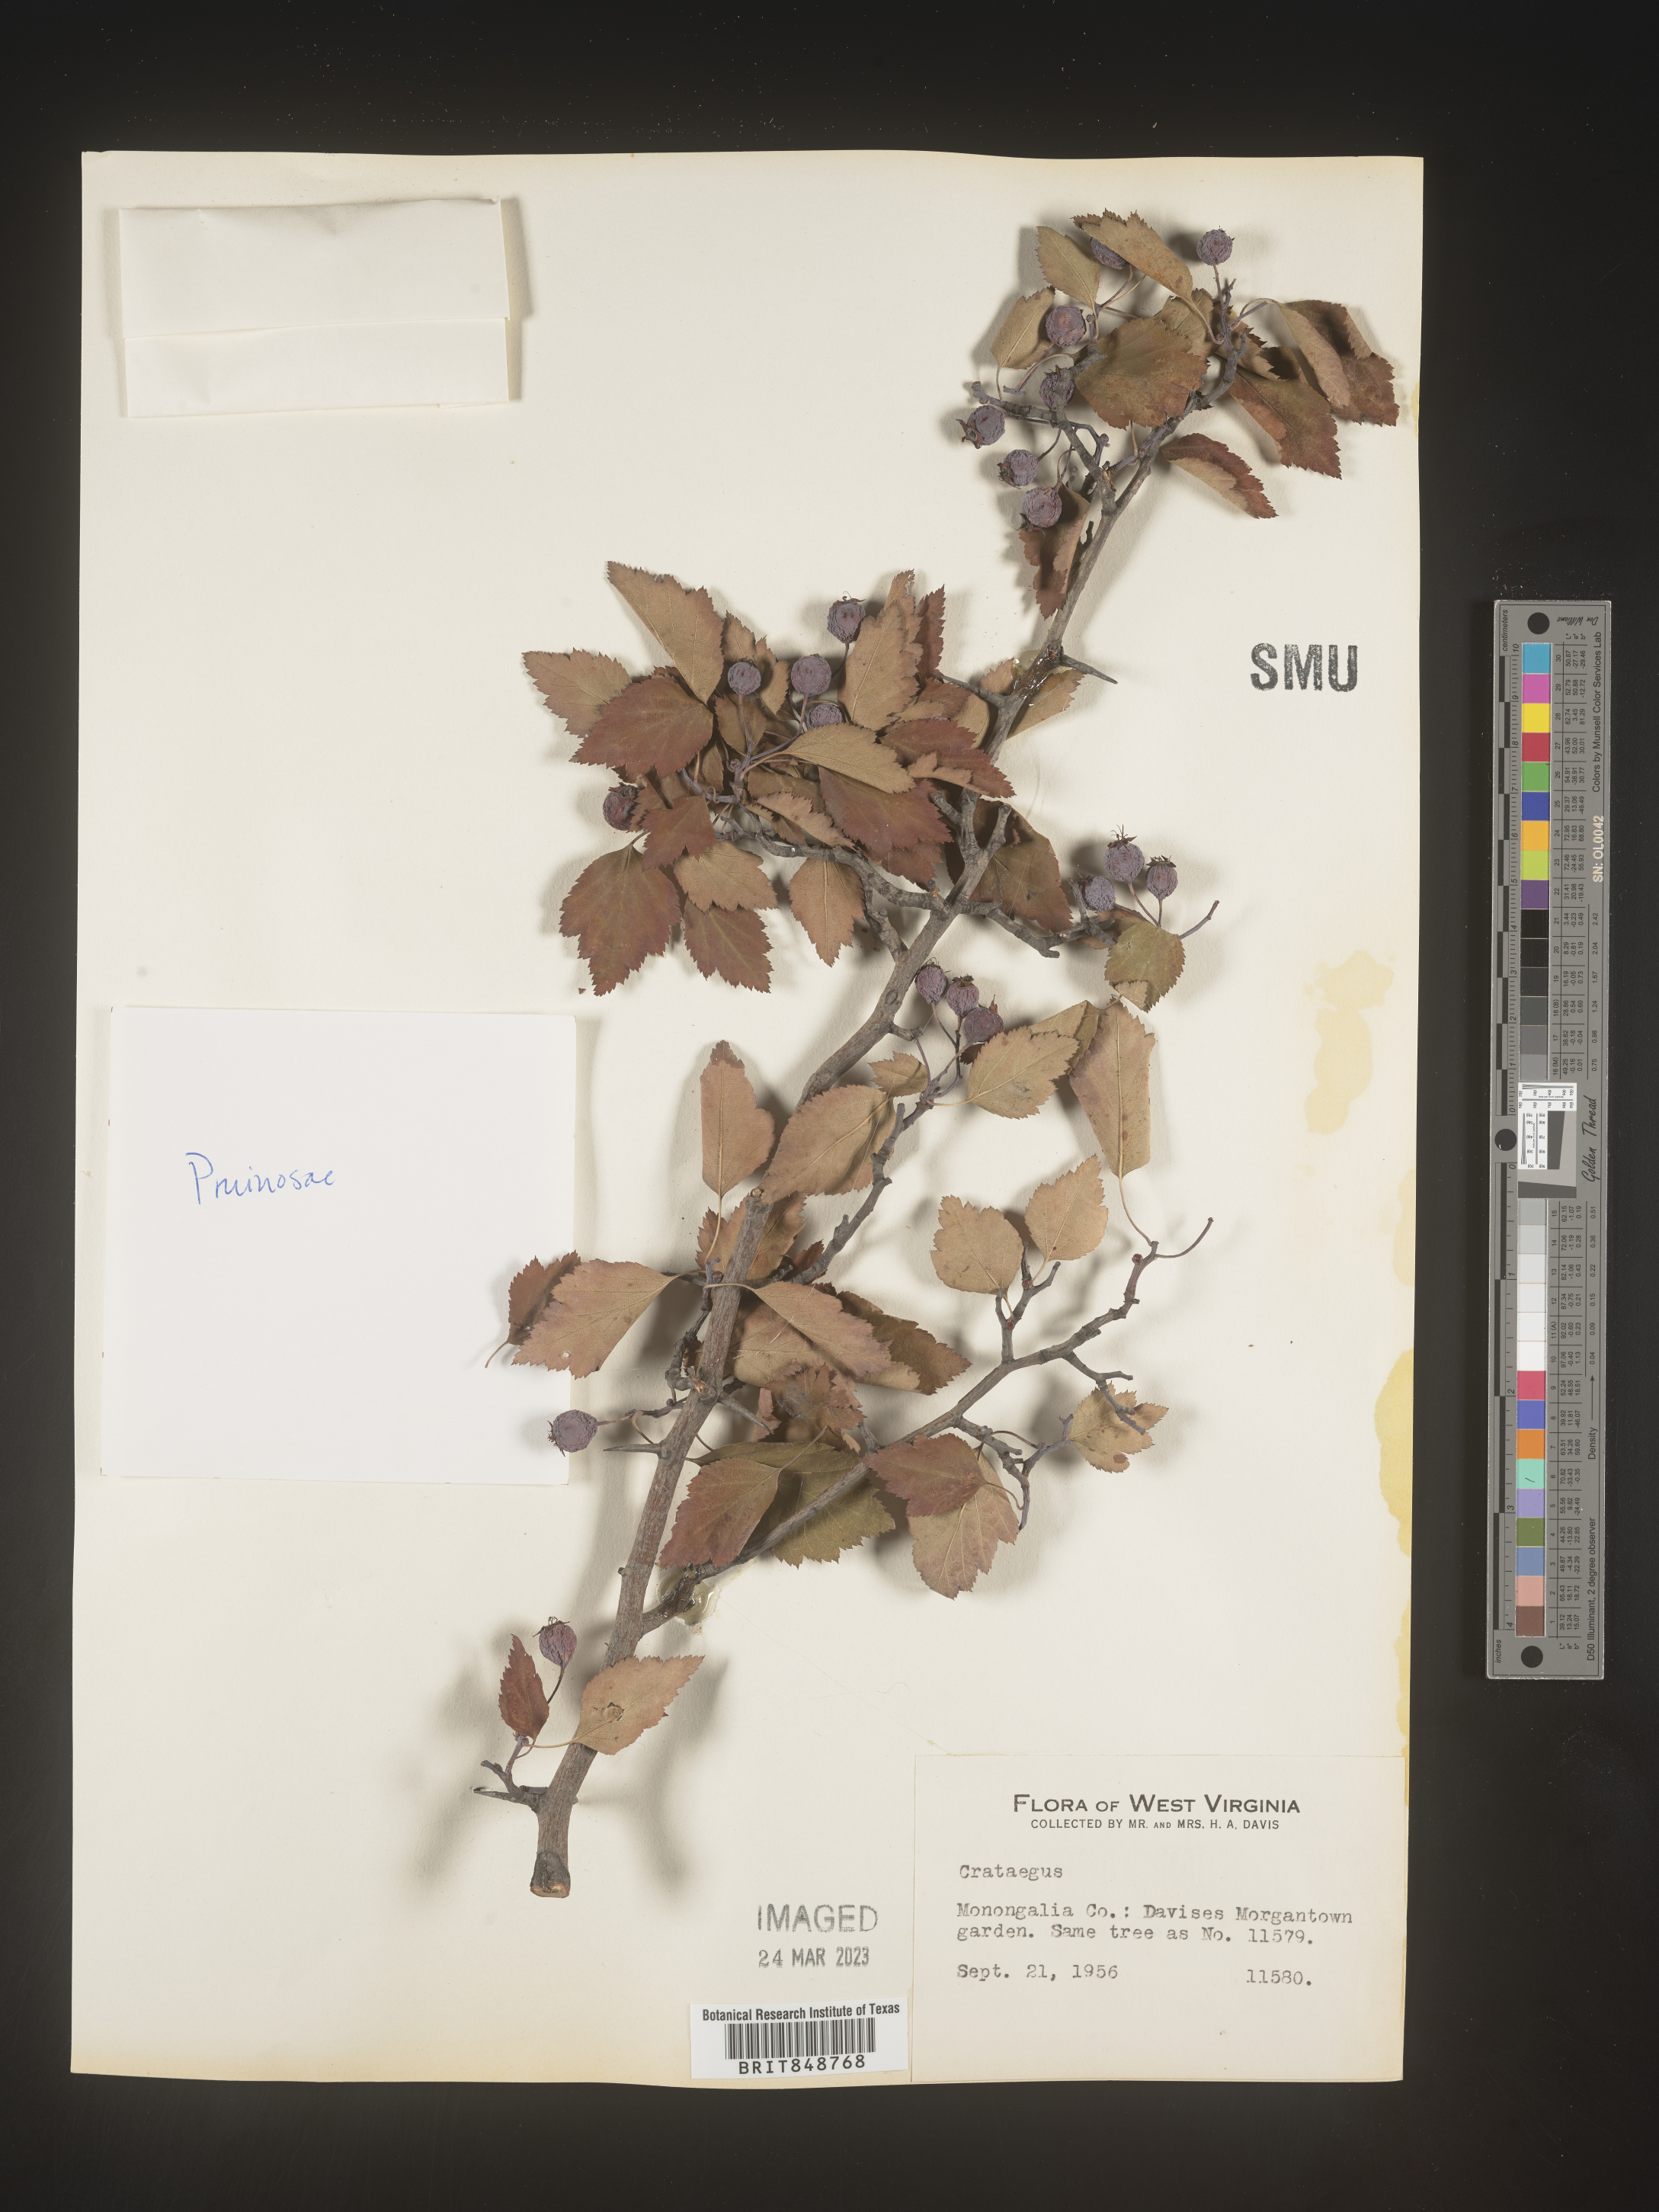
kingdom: Plantae
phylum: Tracheophyta
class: Magnoliopsida
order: Rosales
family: Rosaceae
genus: Crataegus
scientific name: Crataegus
